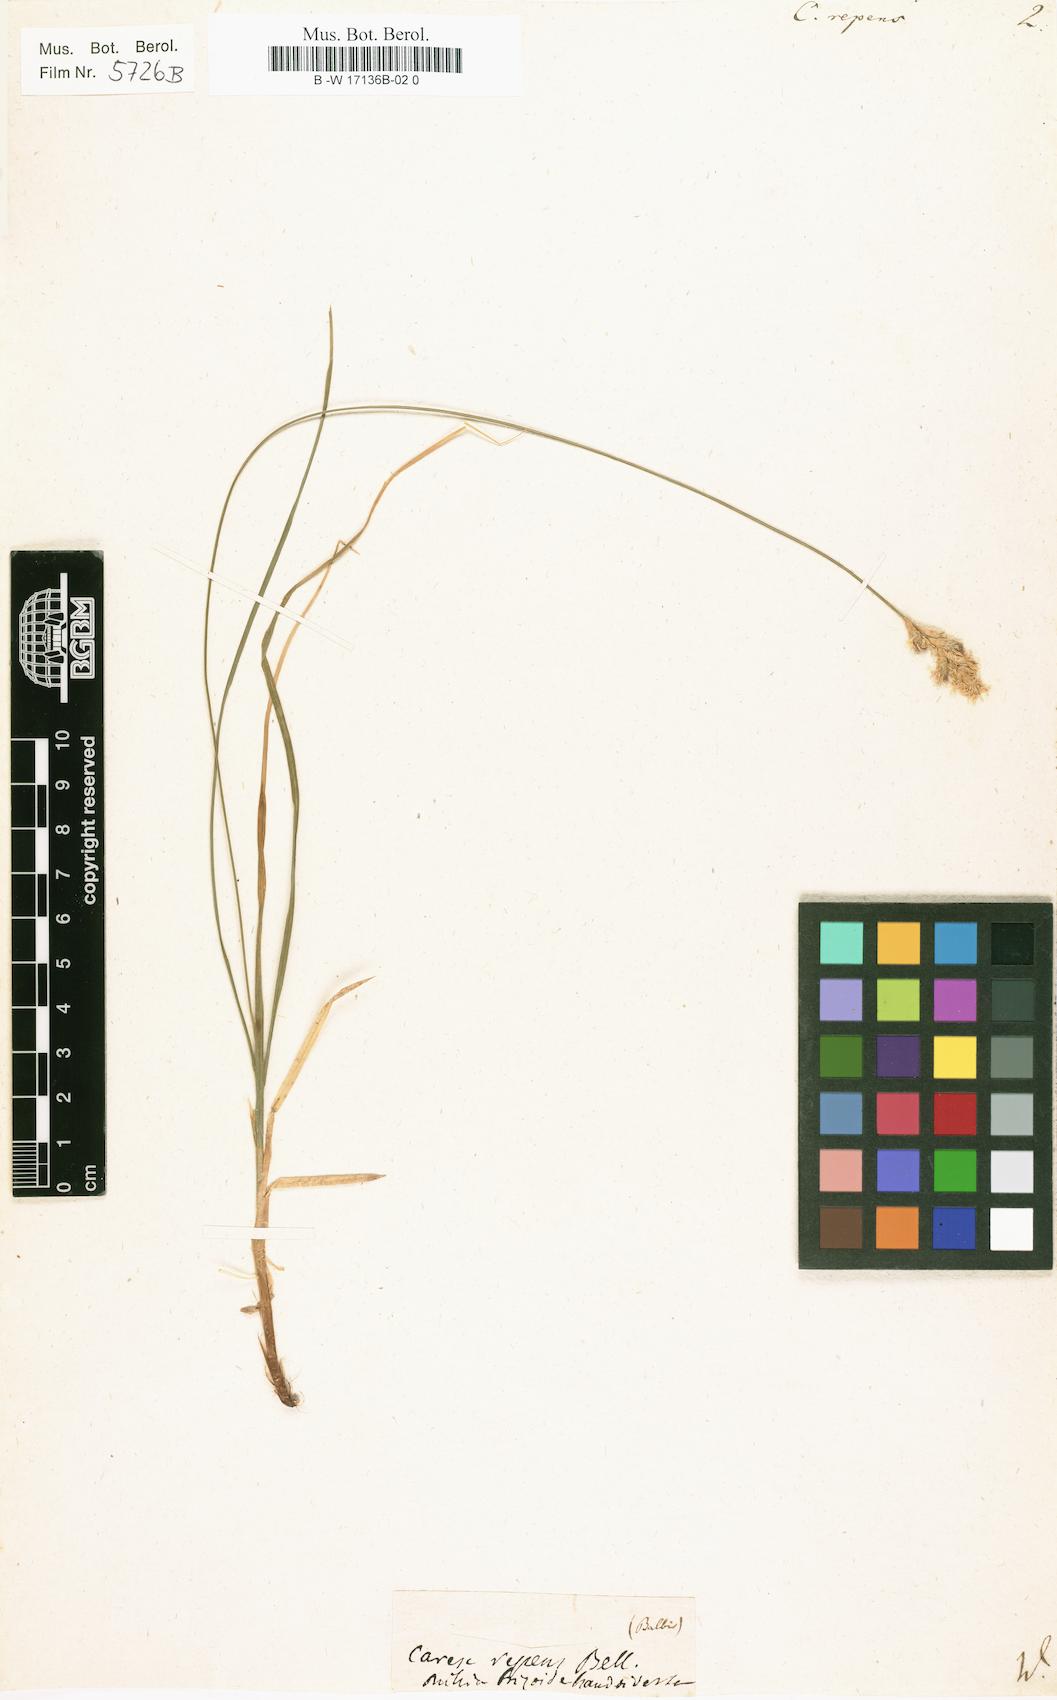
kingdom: Plantae
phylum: Tracheophyta
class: Liliopsida
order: Poales
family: Cyperaceae
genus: Carex
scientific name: Carex repens
